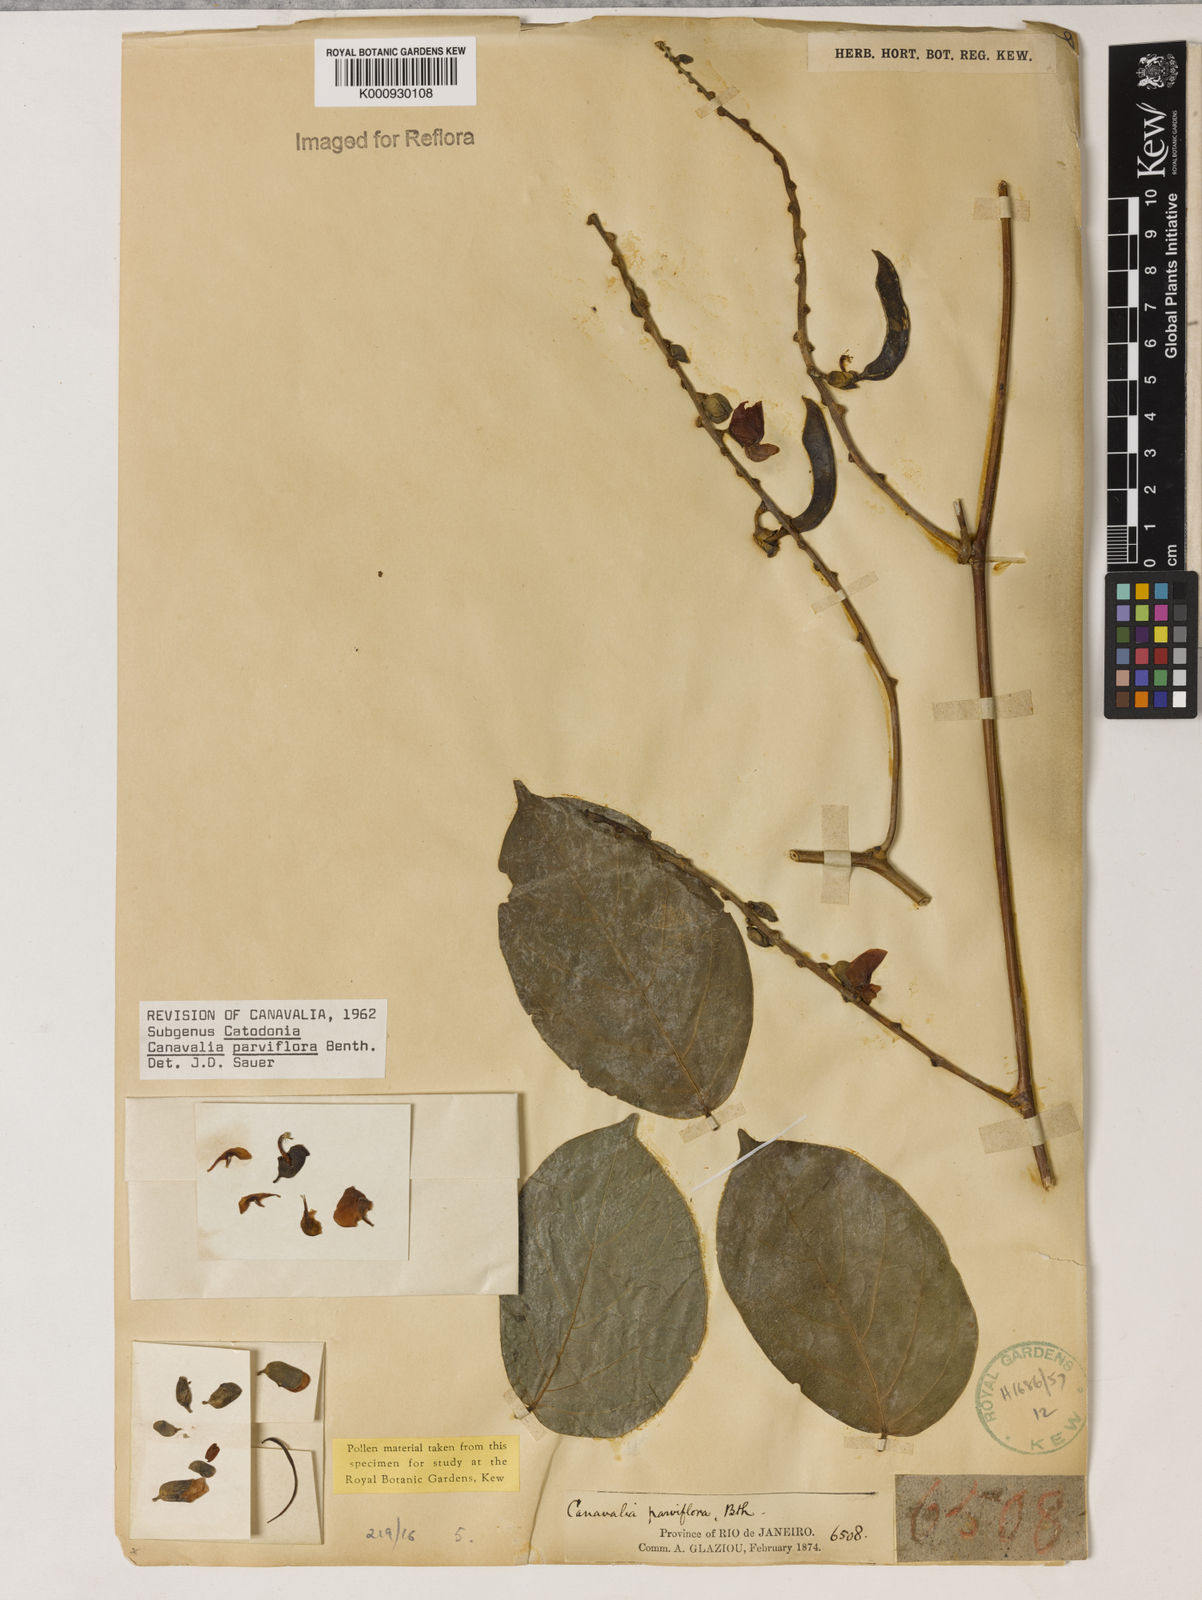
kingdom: Plantae
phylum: Tracheophyta
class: Magnoliopsida
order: Fabales
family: Fabaceae
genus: Canavalia
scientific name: Canavalia parviflora
